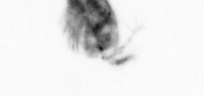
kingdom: Animalia
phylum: Arthropoda
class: Copepoda
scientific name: Copepoda
